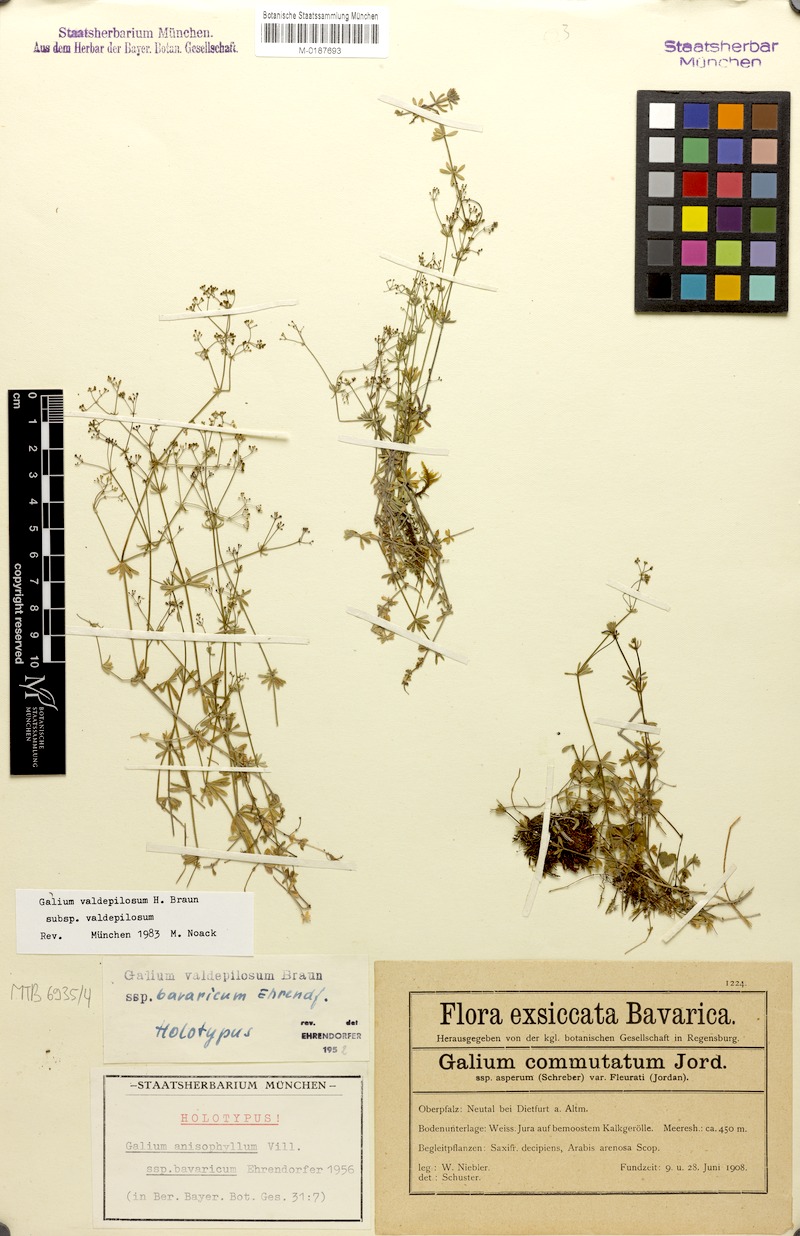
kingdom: Plantae
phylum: Tracheophyta
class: Magnoliopsida
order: Gentianales
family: Rubiaceae
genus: Galium
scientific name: Galium valdepilosum
